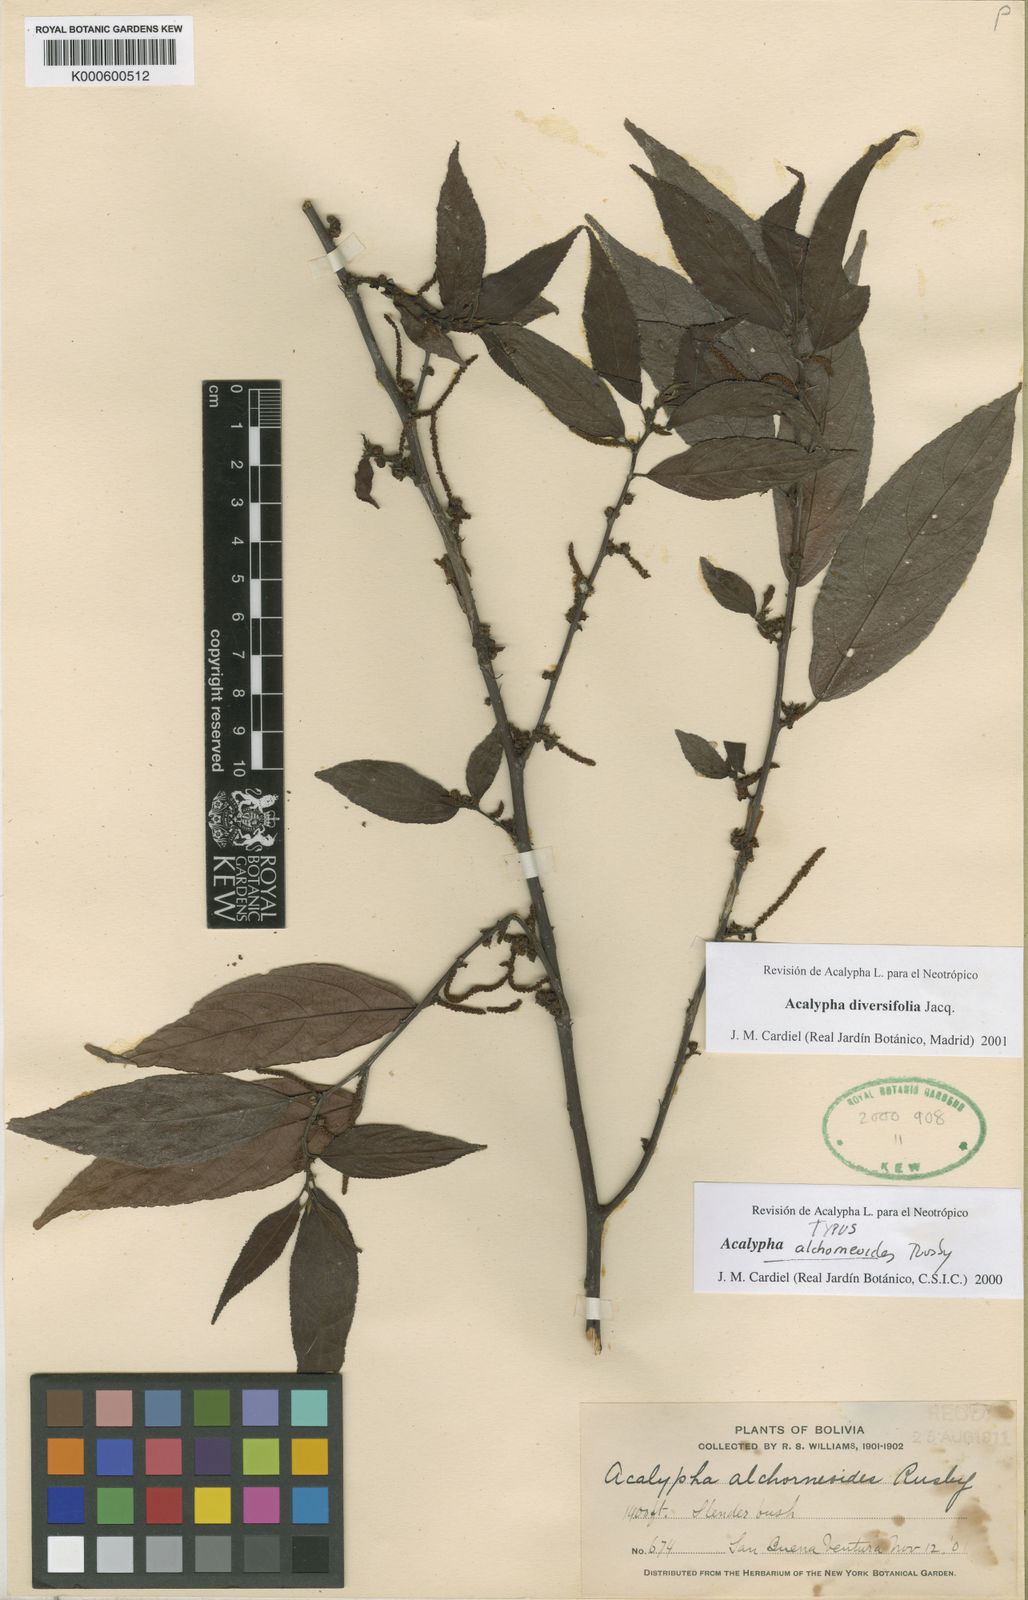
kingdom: Plantae
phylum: Tracheophyta
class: Magnoliopsida
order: Malpighiales
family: Euphorbiaceae
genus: Acalypha
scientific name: Acalypha diversifolia
